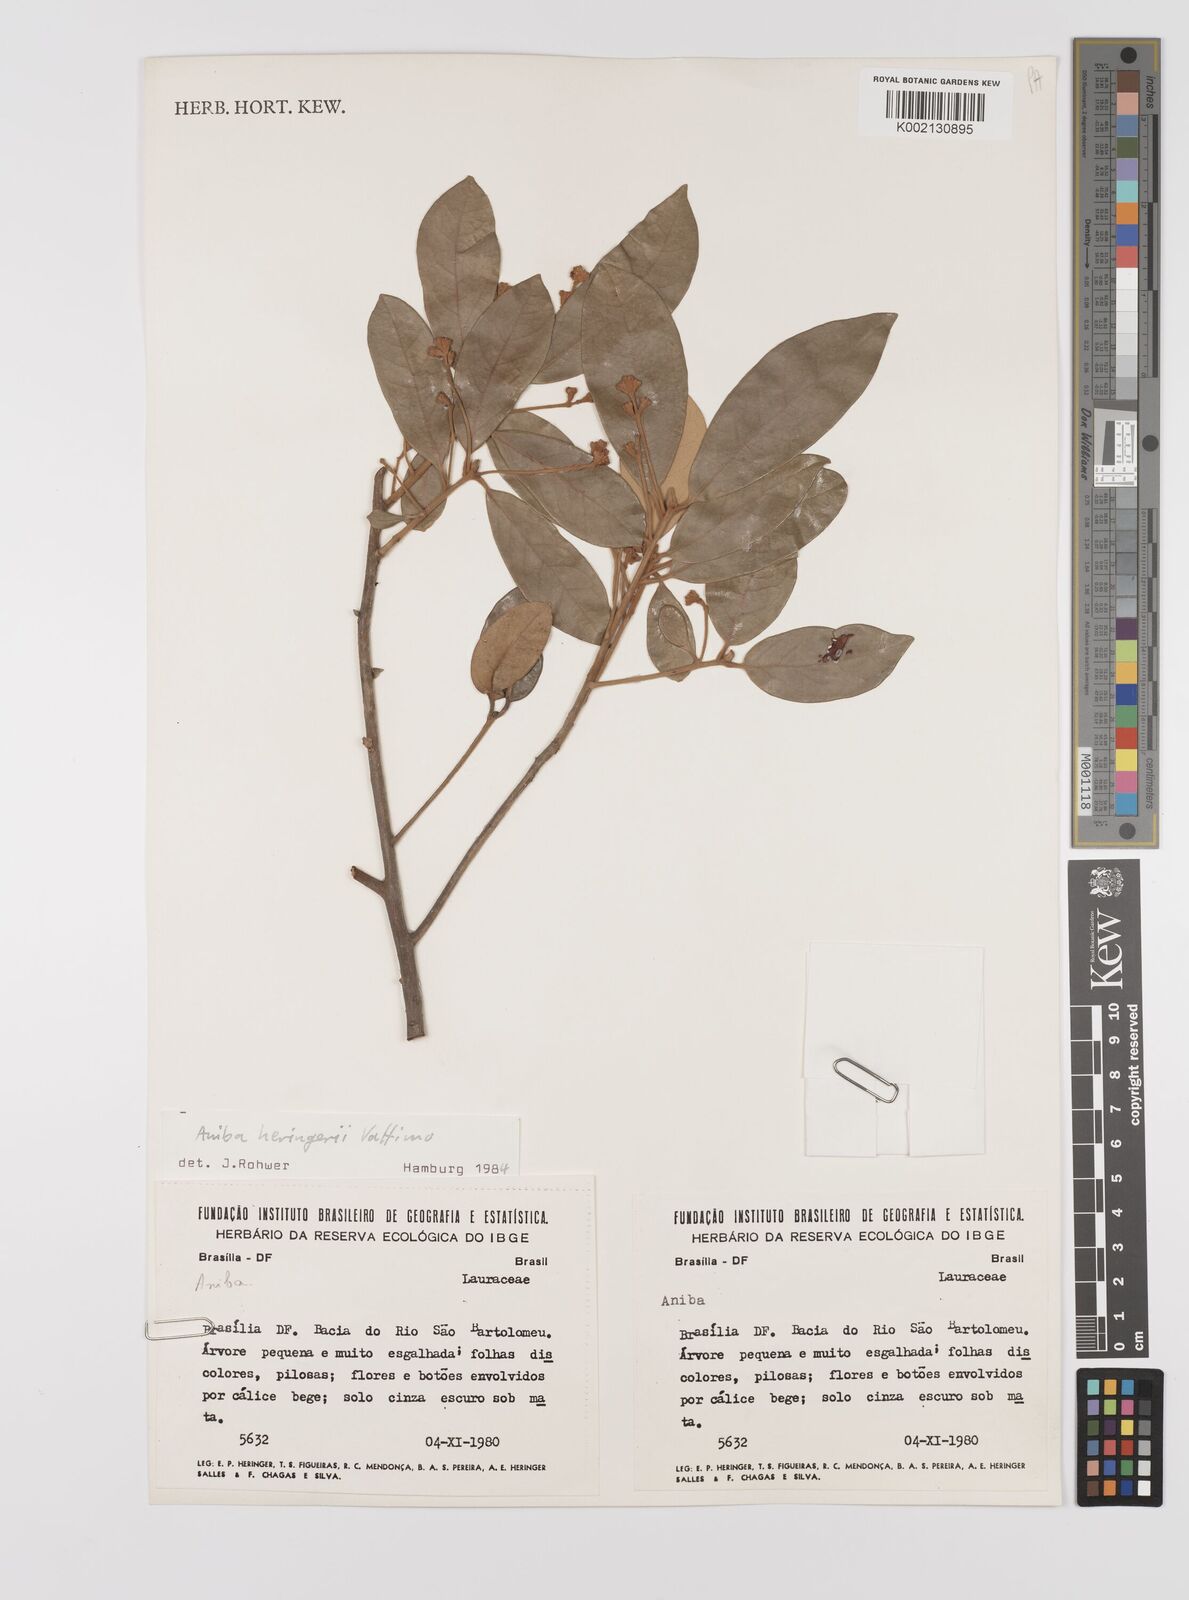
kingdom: Plantae
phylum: Tracheophyta
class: Magnoliopsida
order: Laurales
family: Lauraceae
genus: Aniba
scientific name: Aniba heringeri
